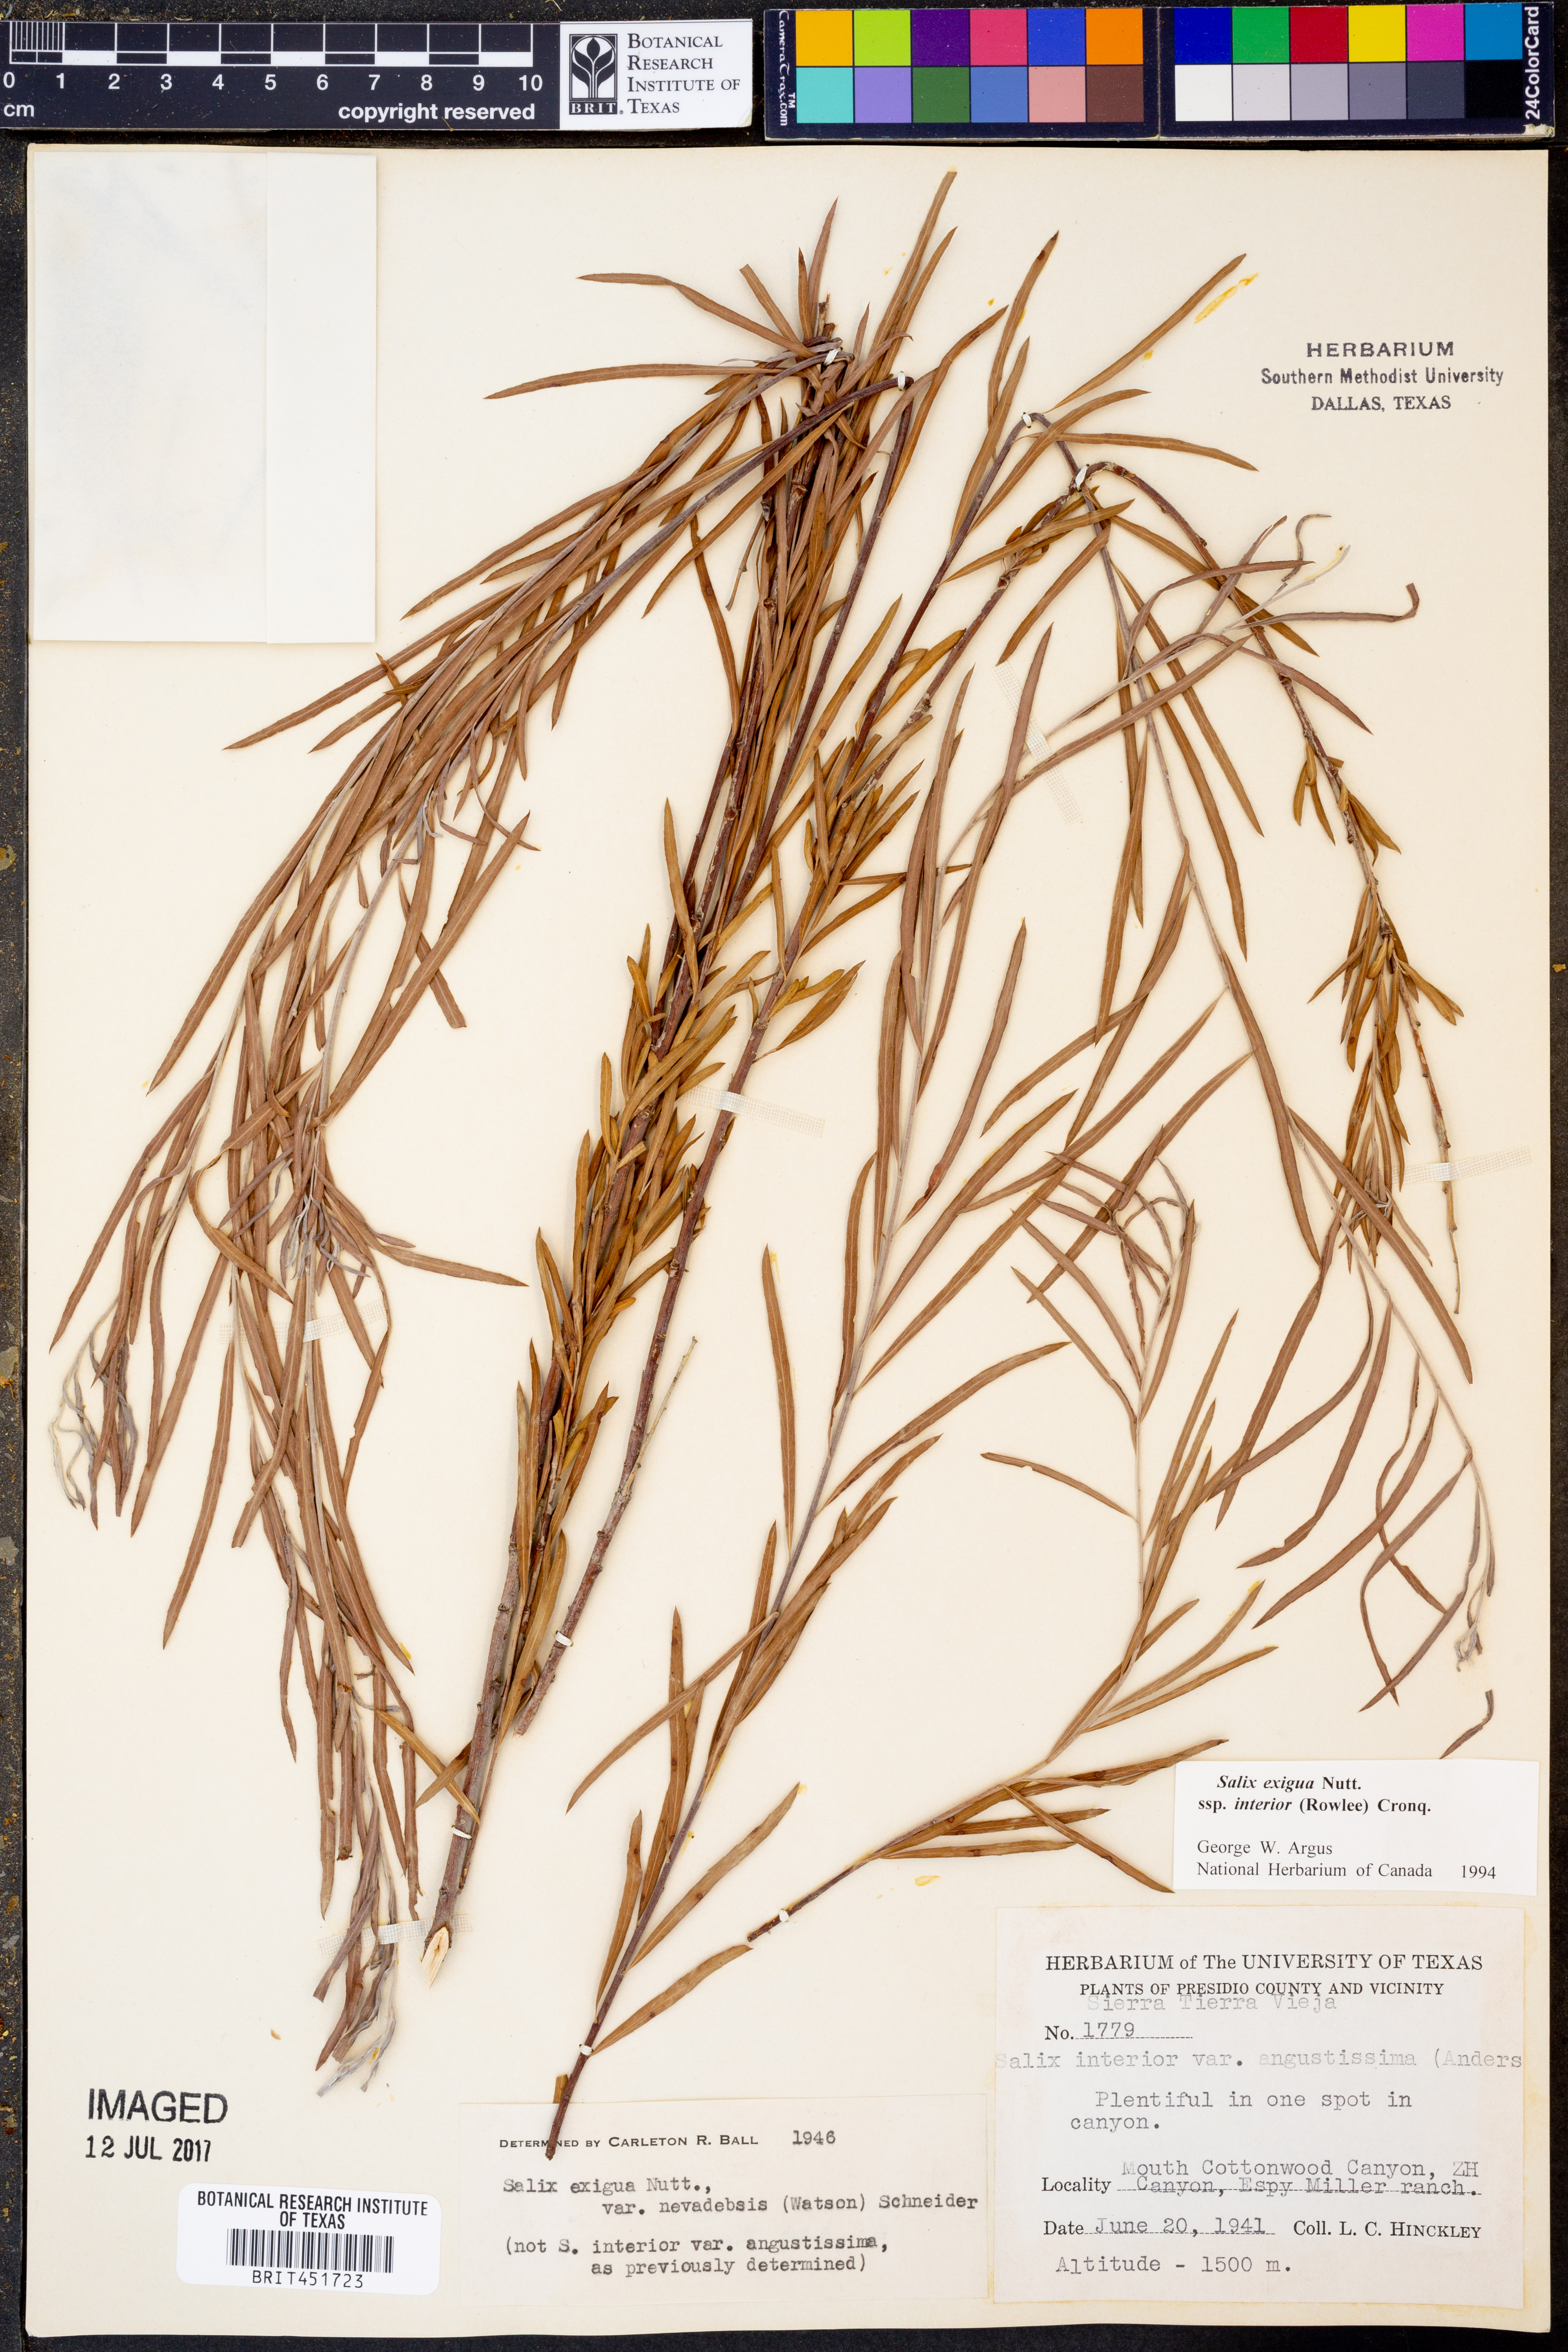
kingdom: Plantae
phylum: Tracheophyta
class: Magnoliopsida
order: Malpighiales
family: Salicaceae
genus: Salix
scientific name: Salix interior
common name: Sandbar willow
